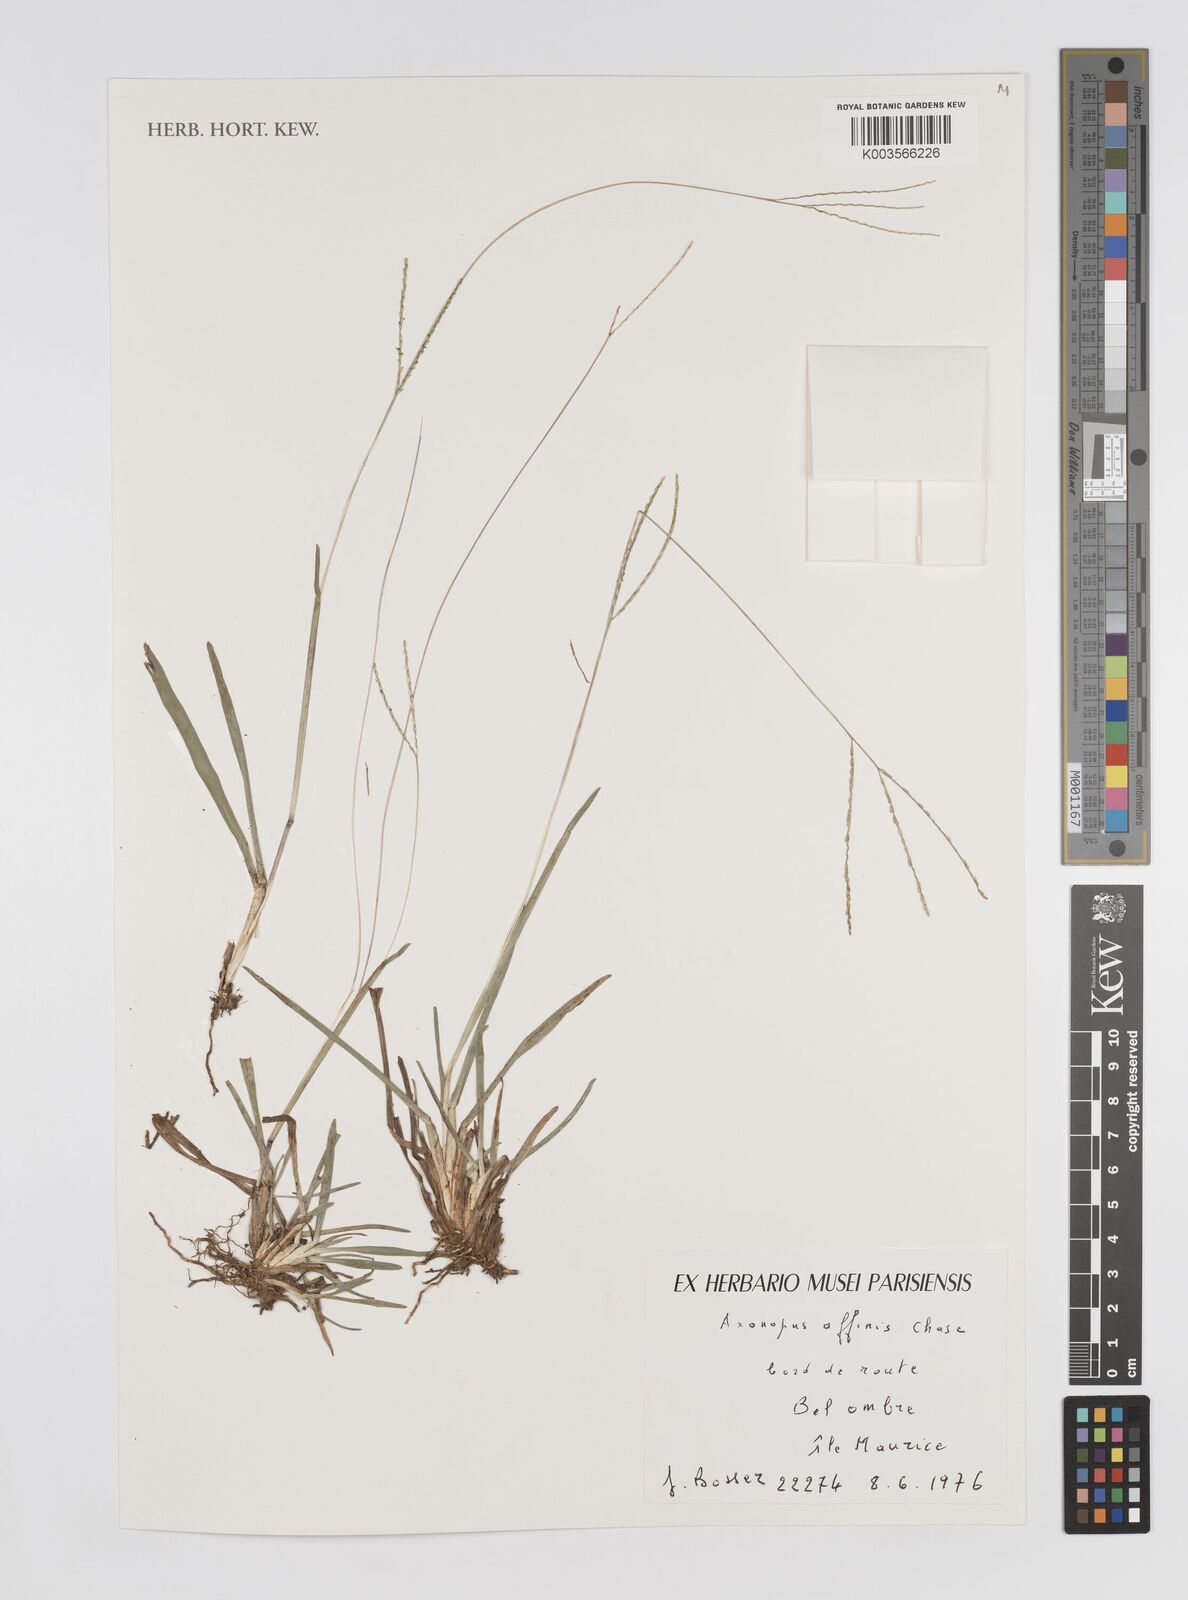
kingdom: Plantae
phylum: Tracheophyta
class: Liliopsida
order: Poales
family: Poaceae
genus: Axonopus
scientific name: Axonopus fissifolius
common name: Common carpetgrass
